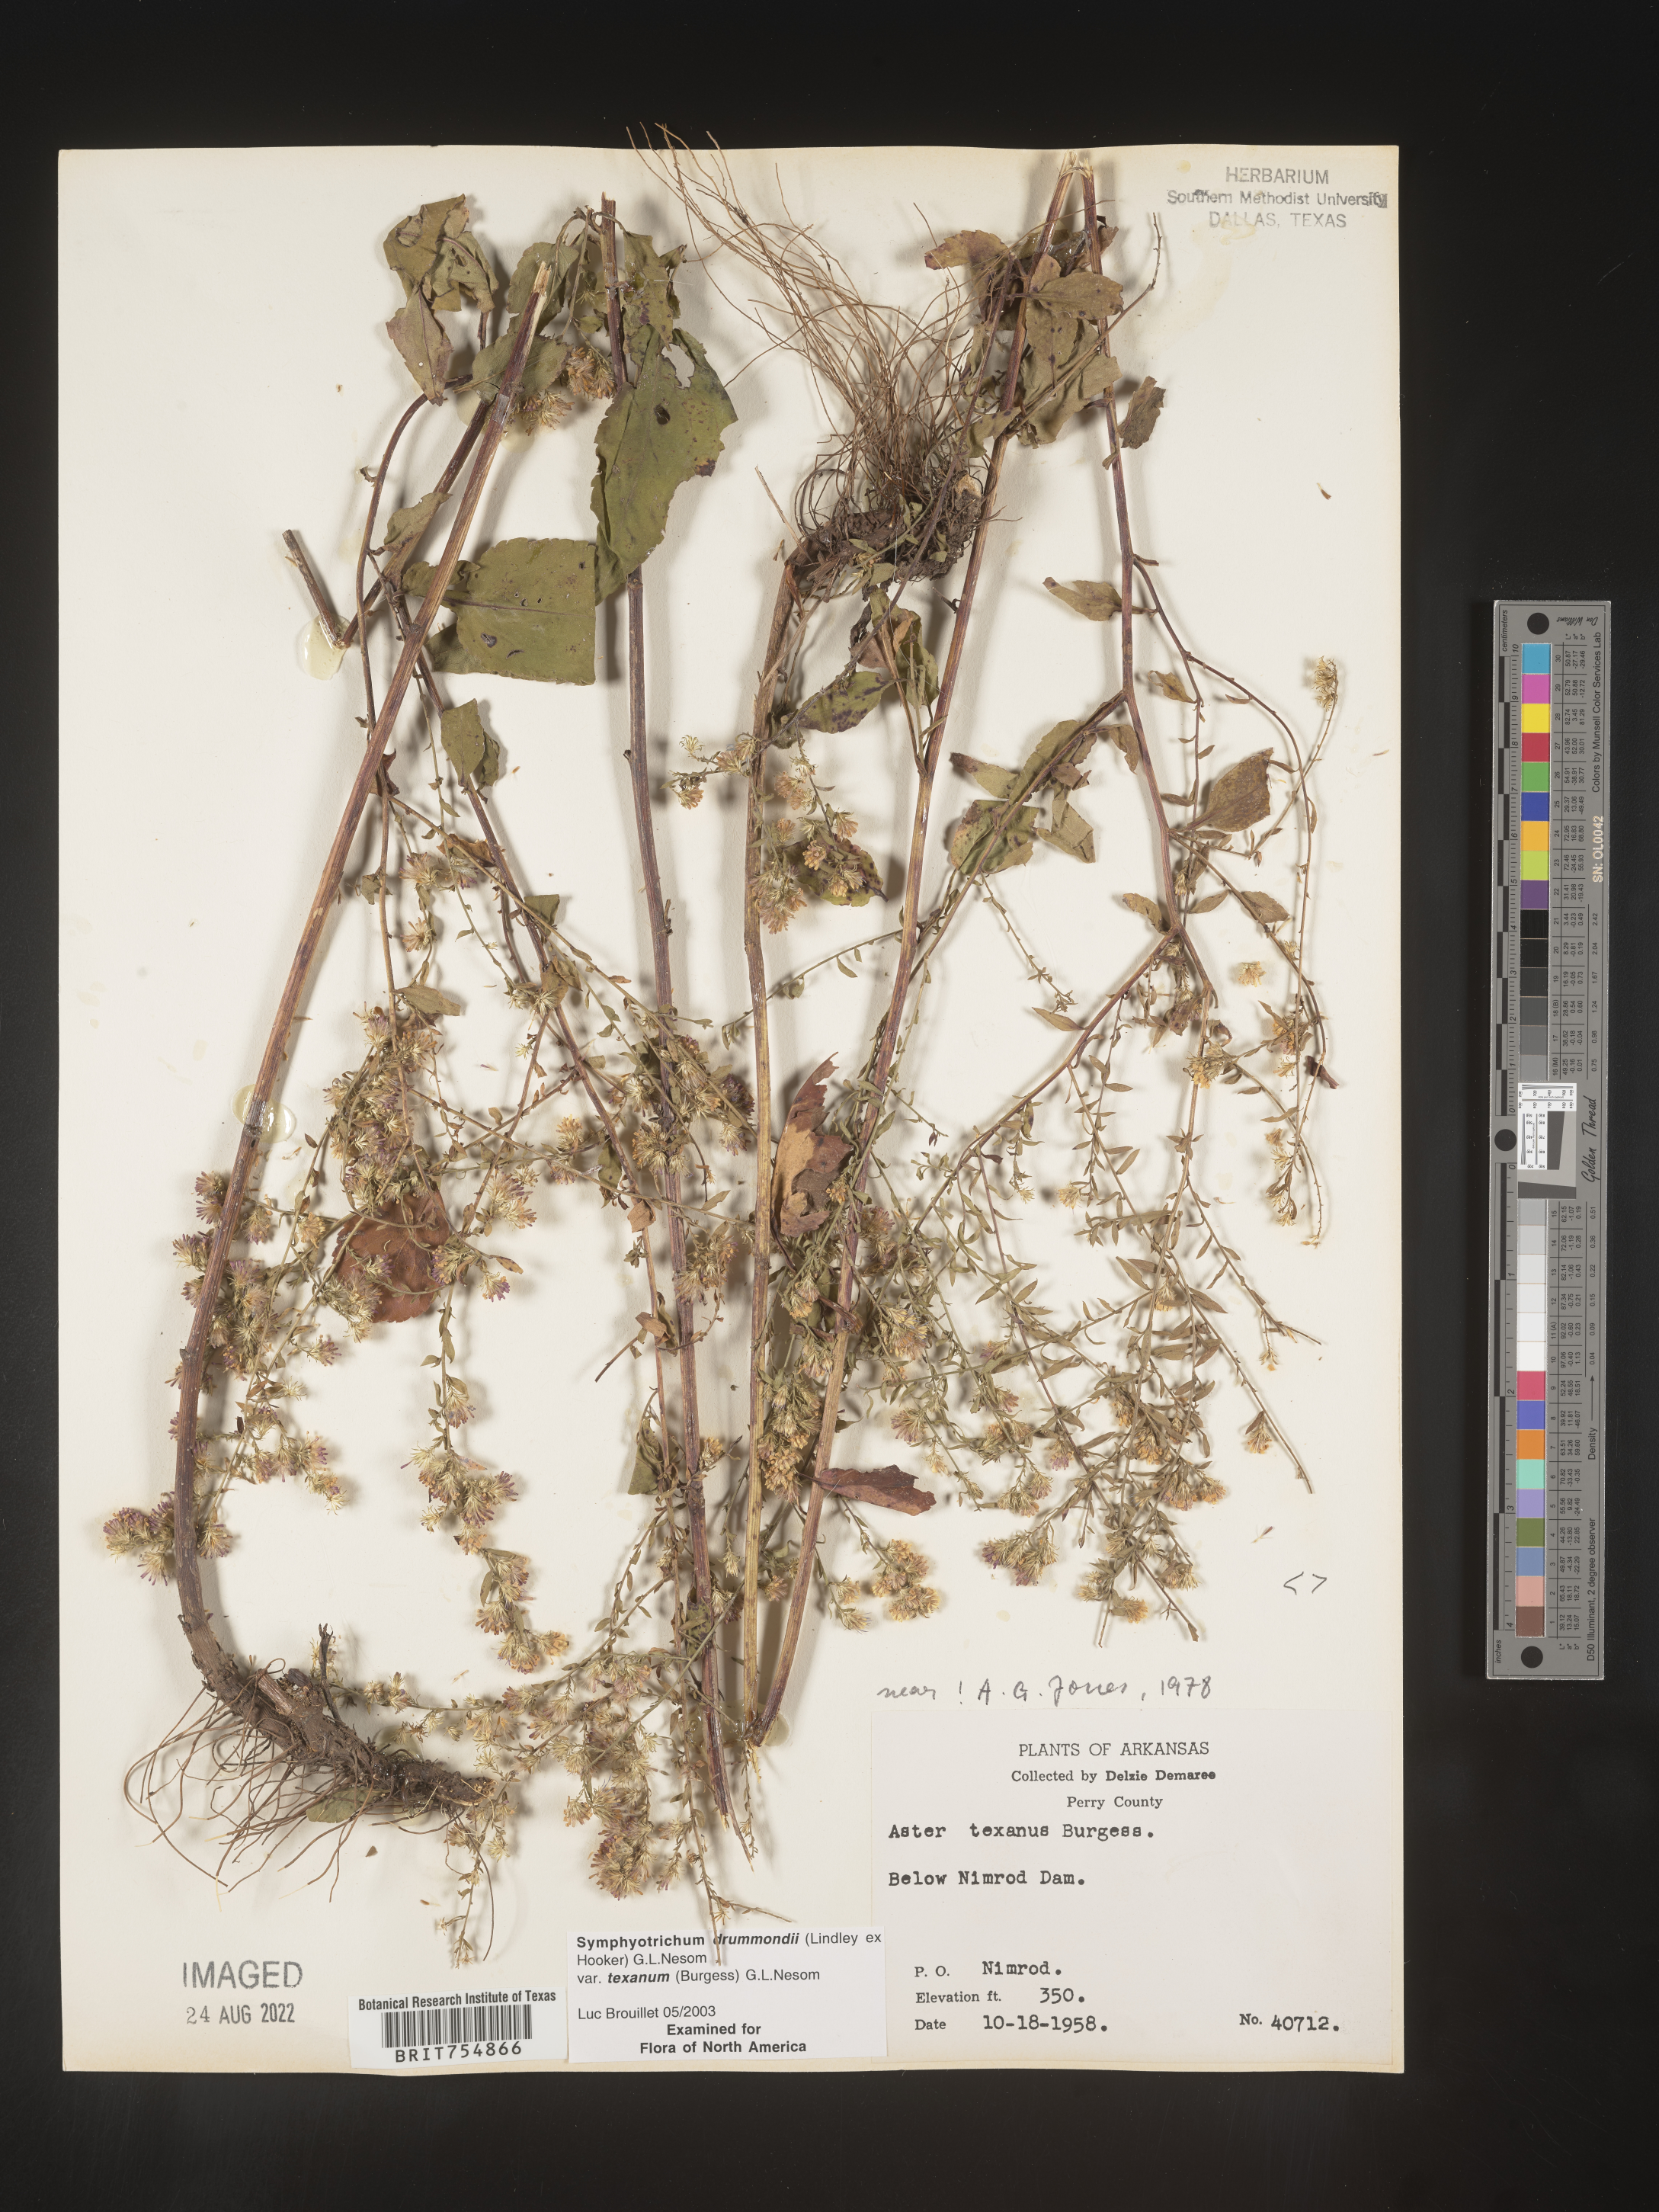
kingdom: Plantae
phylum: Tracheophyta
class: Magnoliopsida
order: Asterales
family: Asteraceae
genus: Symphyotrichum
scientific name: Symphyotrichum urophyllum
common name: Arrow-leaved aster
